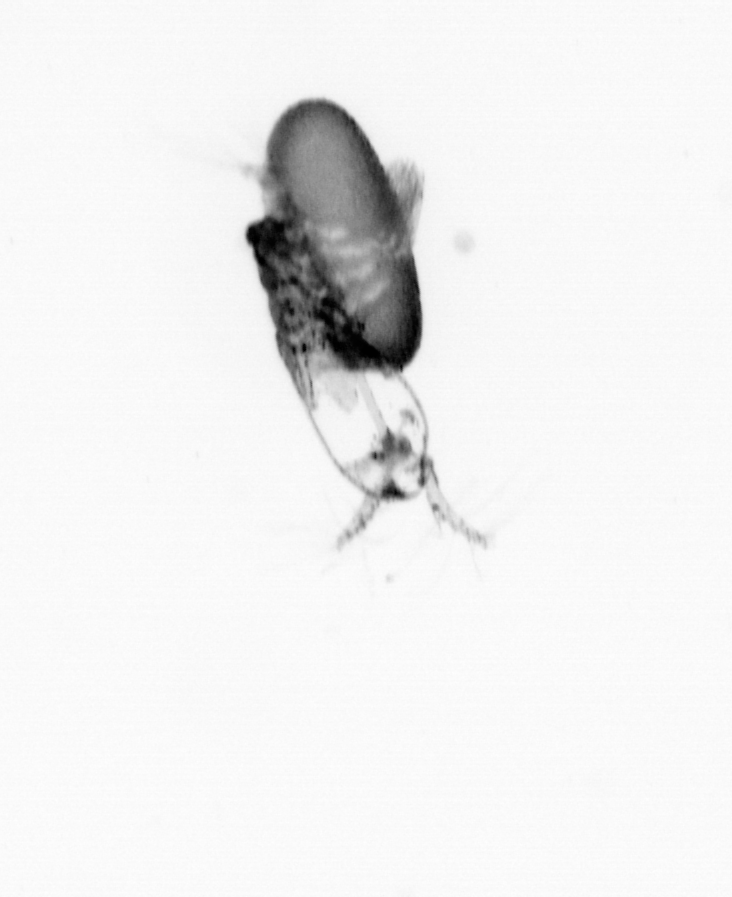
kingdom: Animalia
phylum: Arthropoda
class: Copepoda
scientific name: Copepoda
